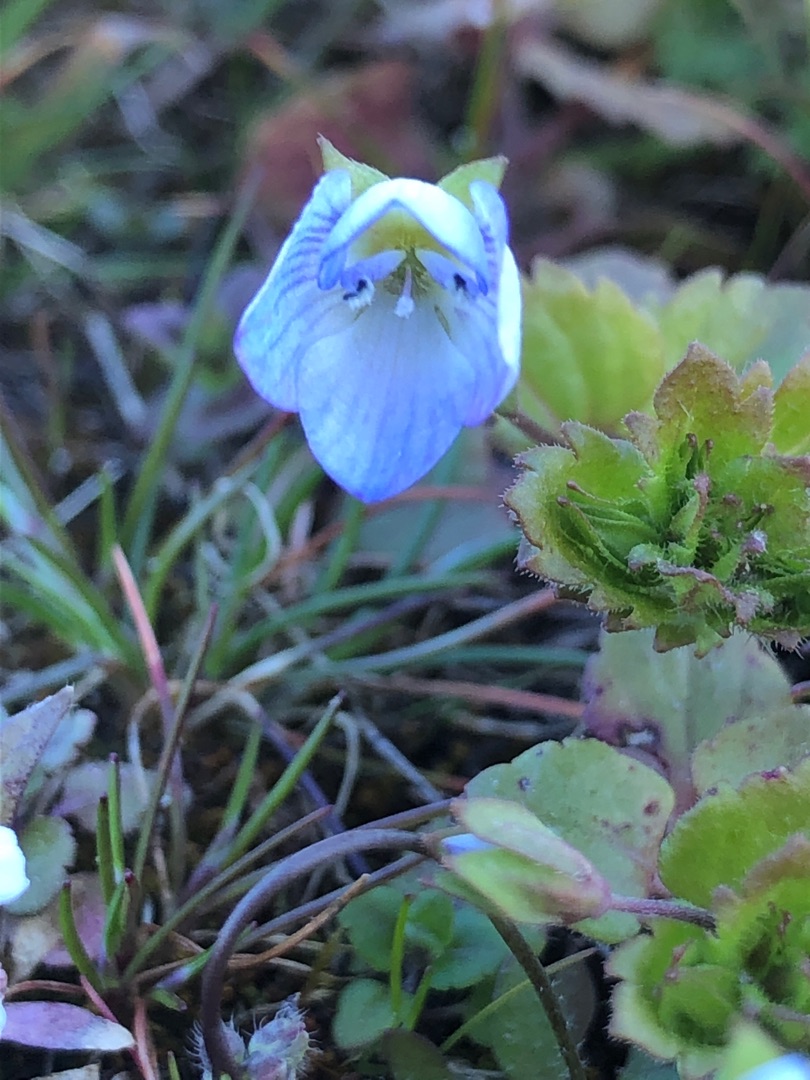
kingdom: Plantae
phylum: Tracheophyta
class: Magnoliopsida
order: Lamiales
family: Plantaginaceae
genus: Veronica
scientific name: Veronica persica
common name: Storkronet ærenpris
